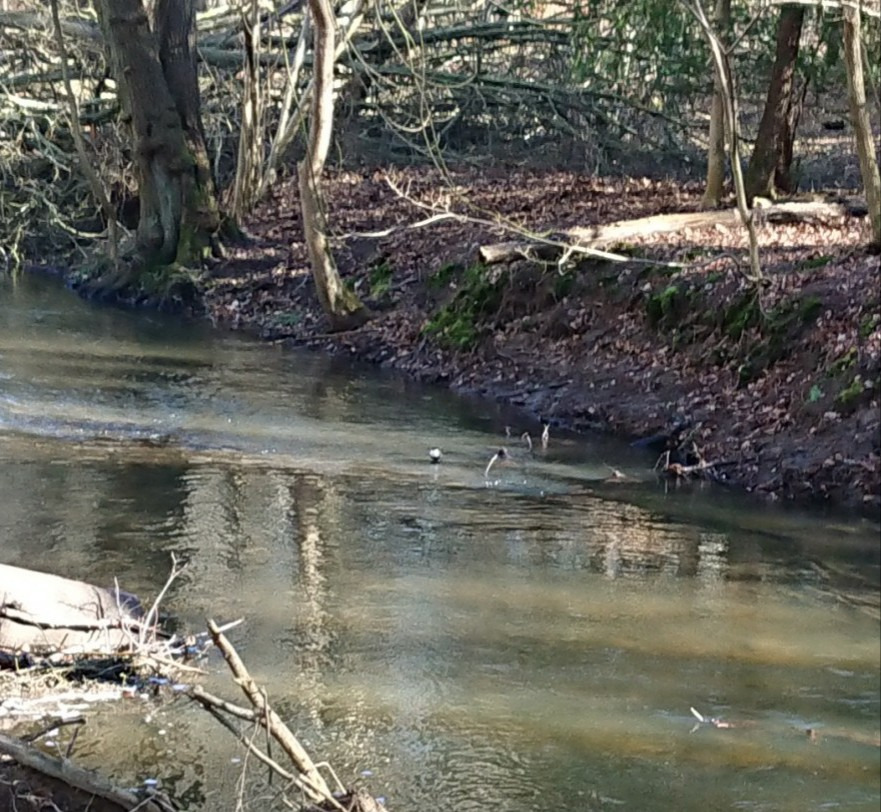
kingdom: Animalia
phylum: Chordata
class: Aves
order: Passeriformes
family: Cinclidae
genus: Cinclus
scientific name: Cinclus cinclus
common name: Vandstær
